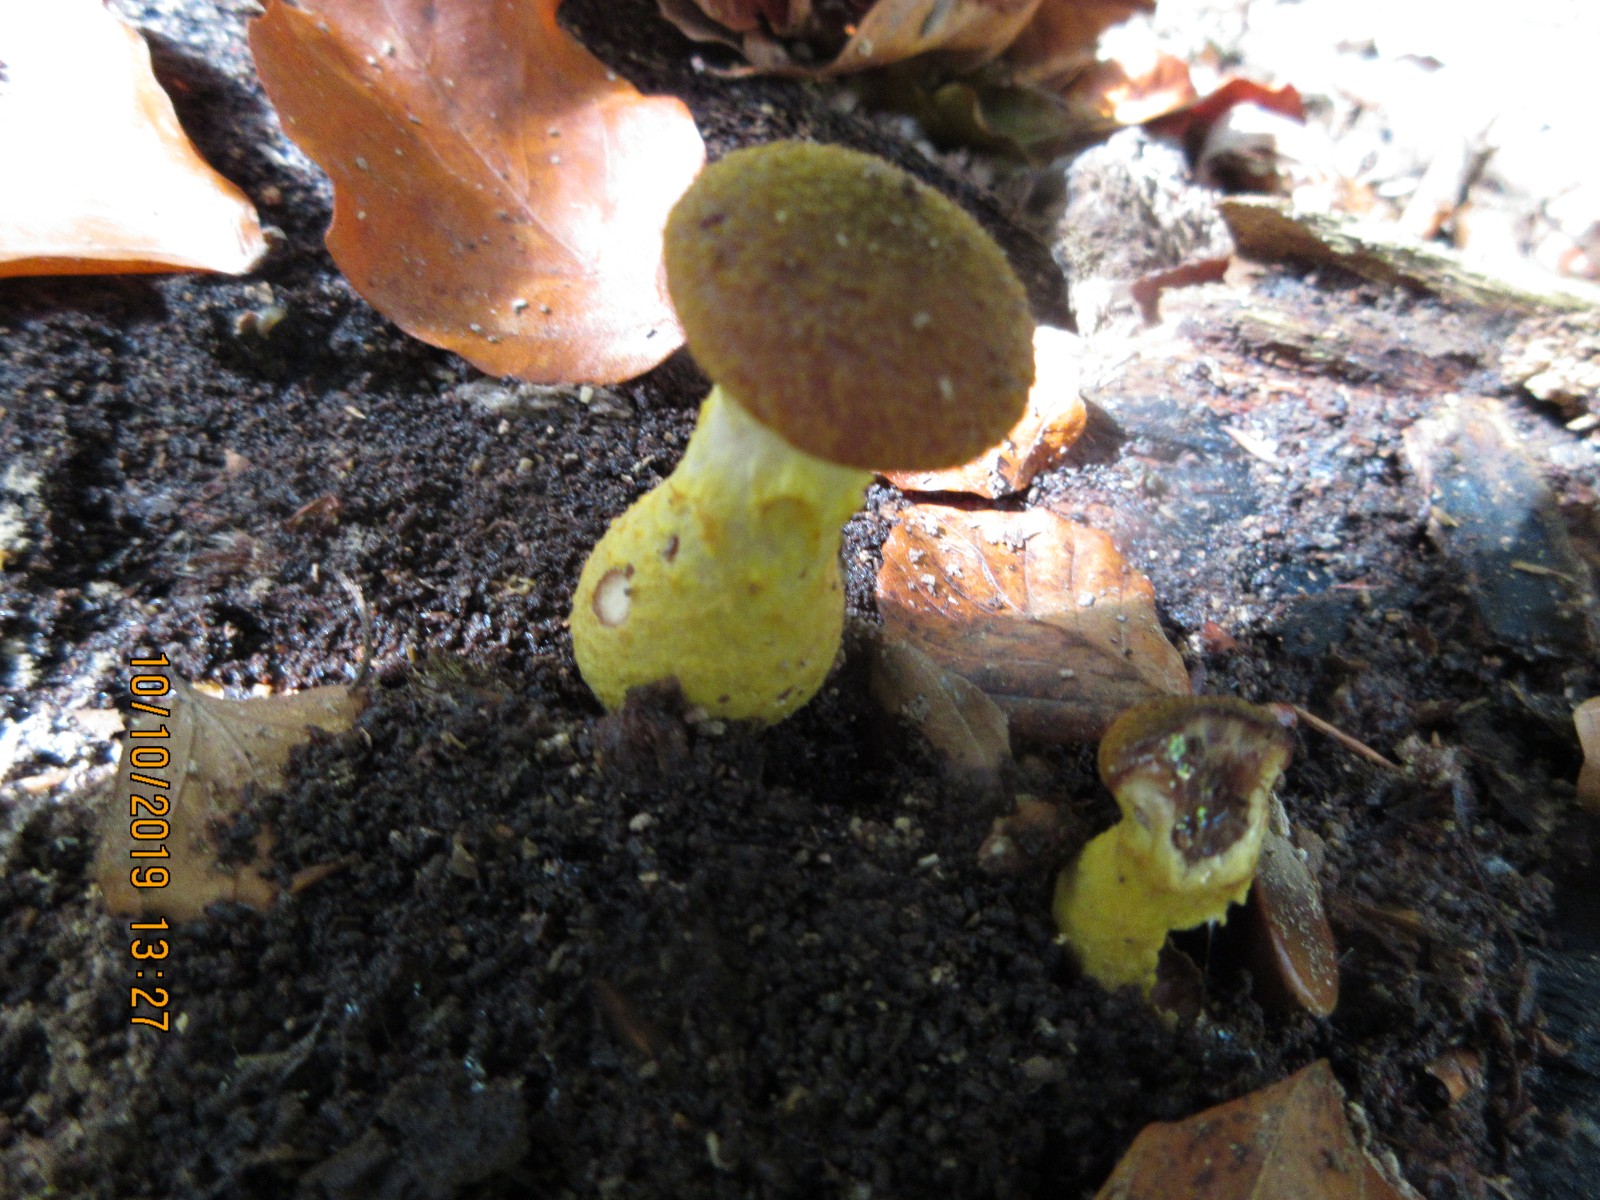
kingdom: Fungi
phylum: Basidiomycota
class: Agaricomycetes
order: Agaricales
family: Physalacriaceae
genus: Armillaria
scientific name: Armillaria lutea
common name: køllestokket honningsvamp
